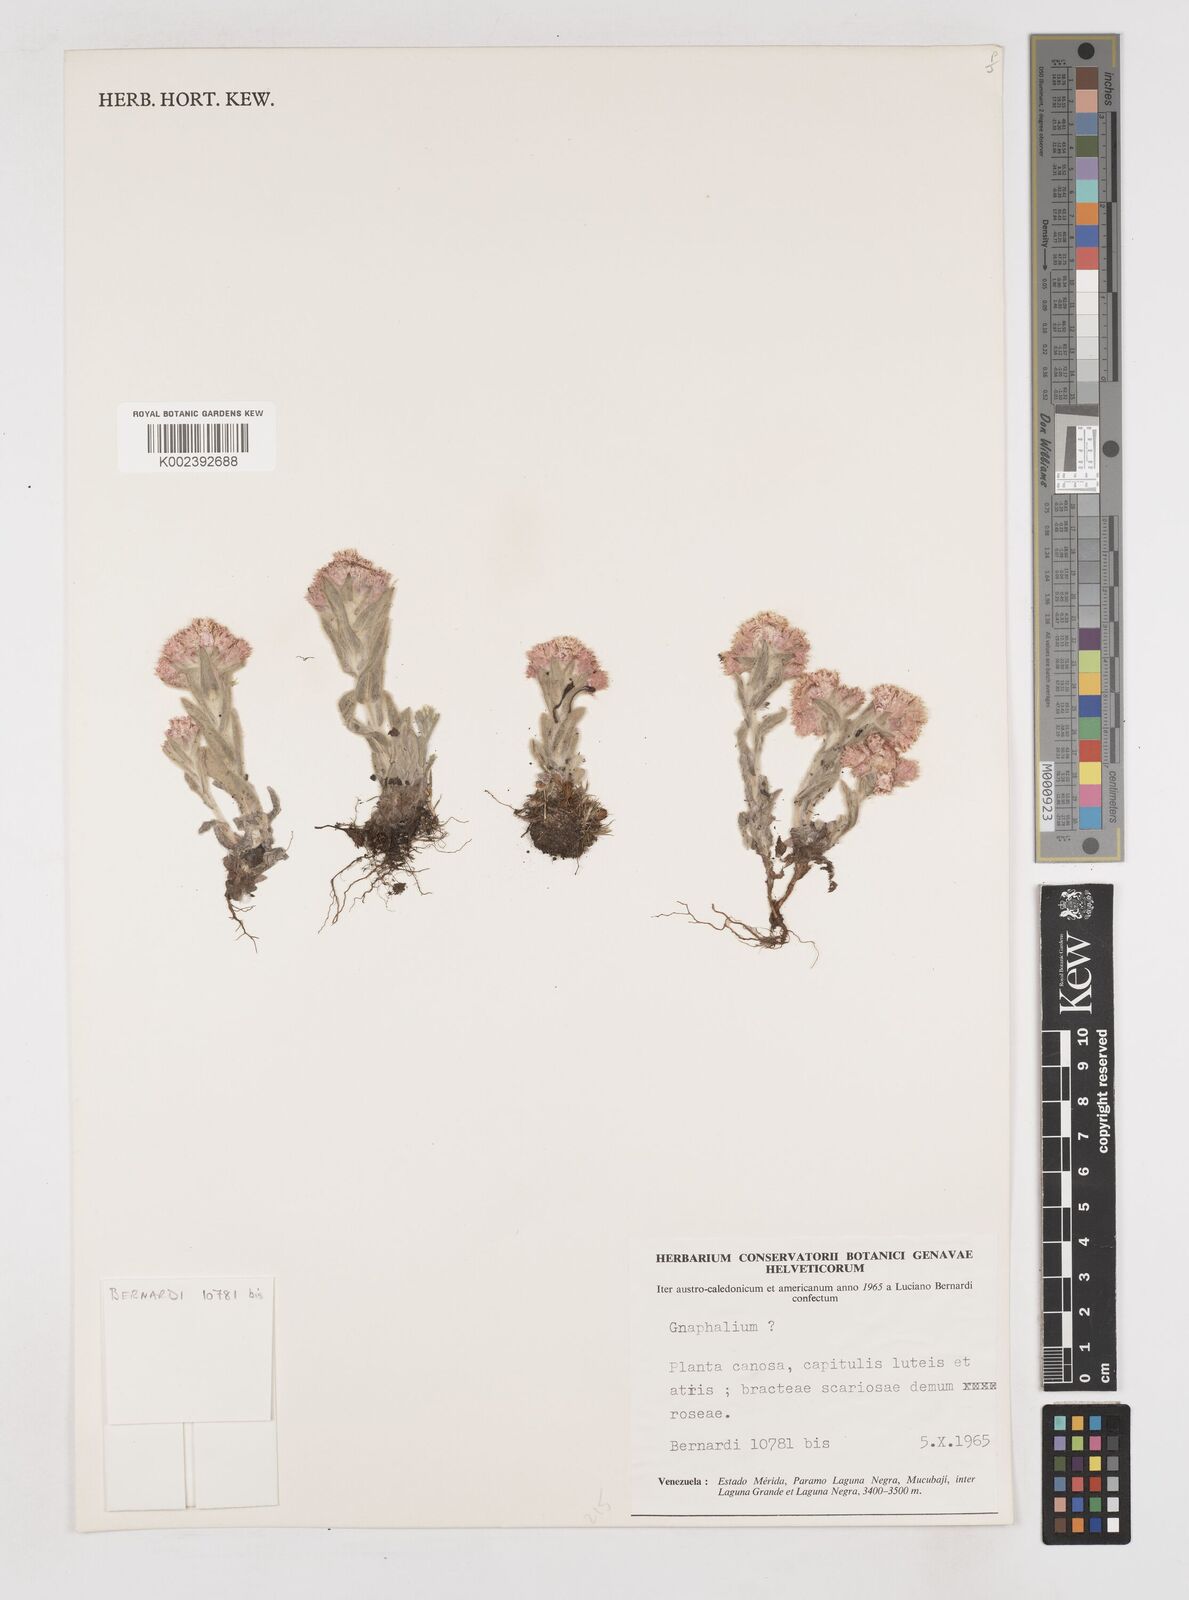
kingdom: Plantae
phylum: Tracheophyta
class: Magnoliopsida
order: Asterales
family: Asteraceae
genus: Gnaphalium
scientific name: Gnaphalium
